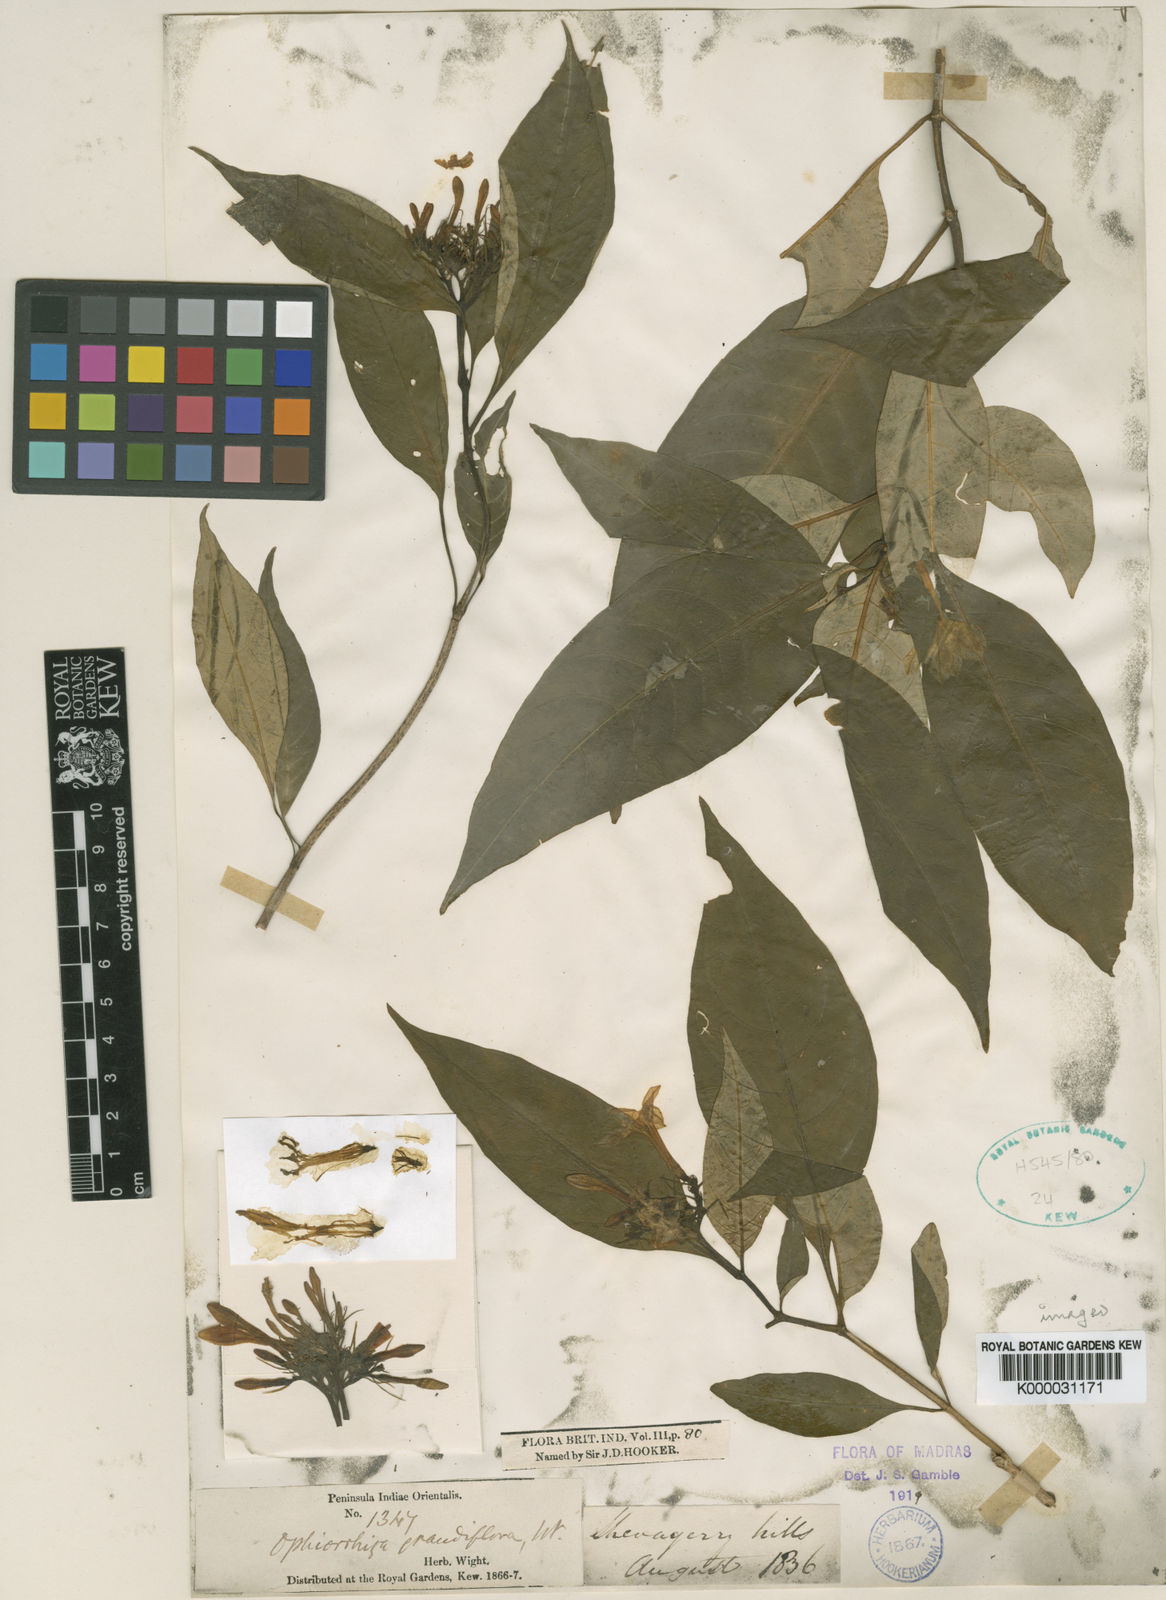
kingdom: Plantae
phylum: Tracheophyta
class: Magnoliopsida
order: Gentianales
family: Rubiaceae
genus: Ophiorrhiza
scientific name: Ophiorrhiza grandiflora
